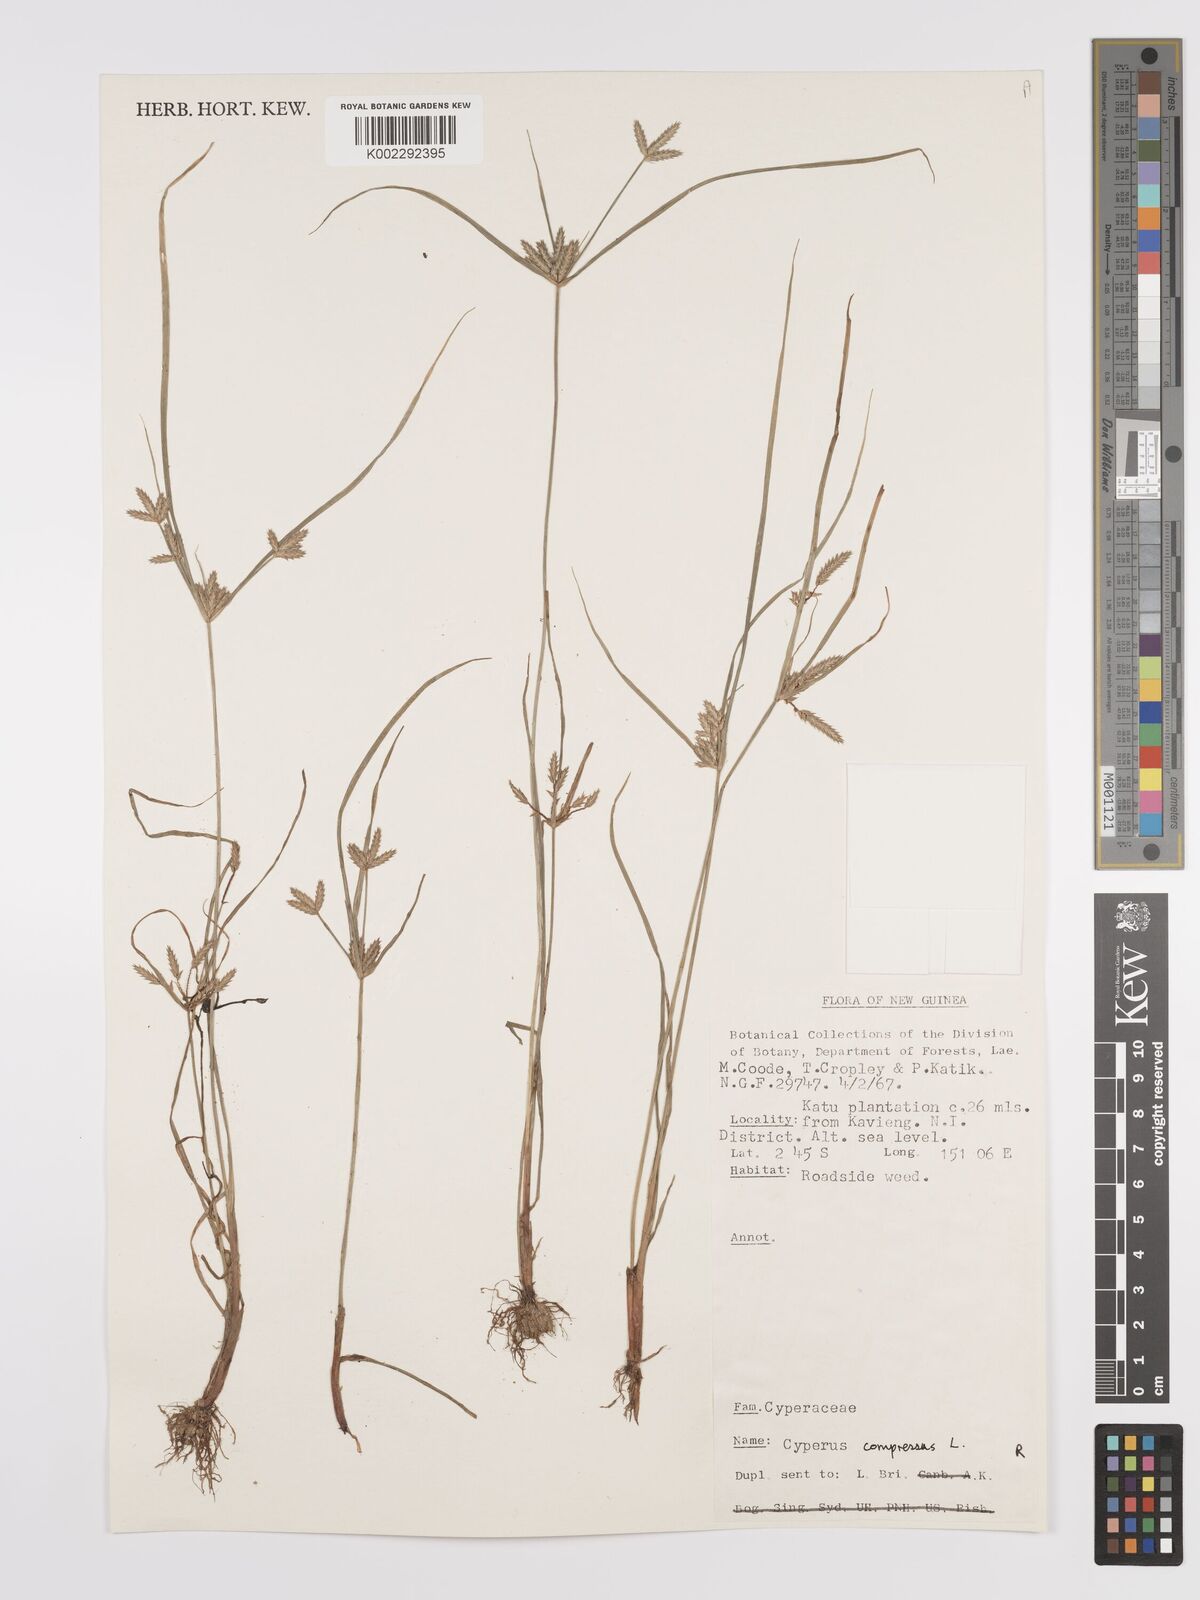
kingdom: Plantae
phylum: Tracheophyta
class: Liliopsida
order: Poales
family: Cyperaceae
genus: Cyperus
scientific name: Cyperus compressus
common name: Poorland flatsedge
